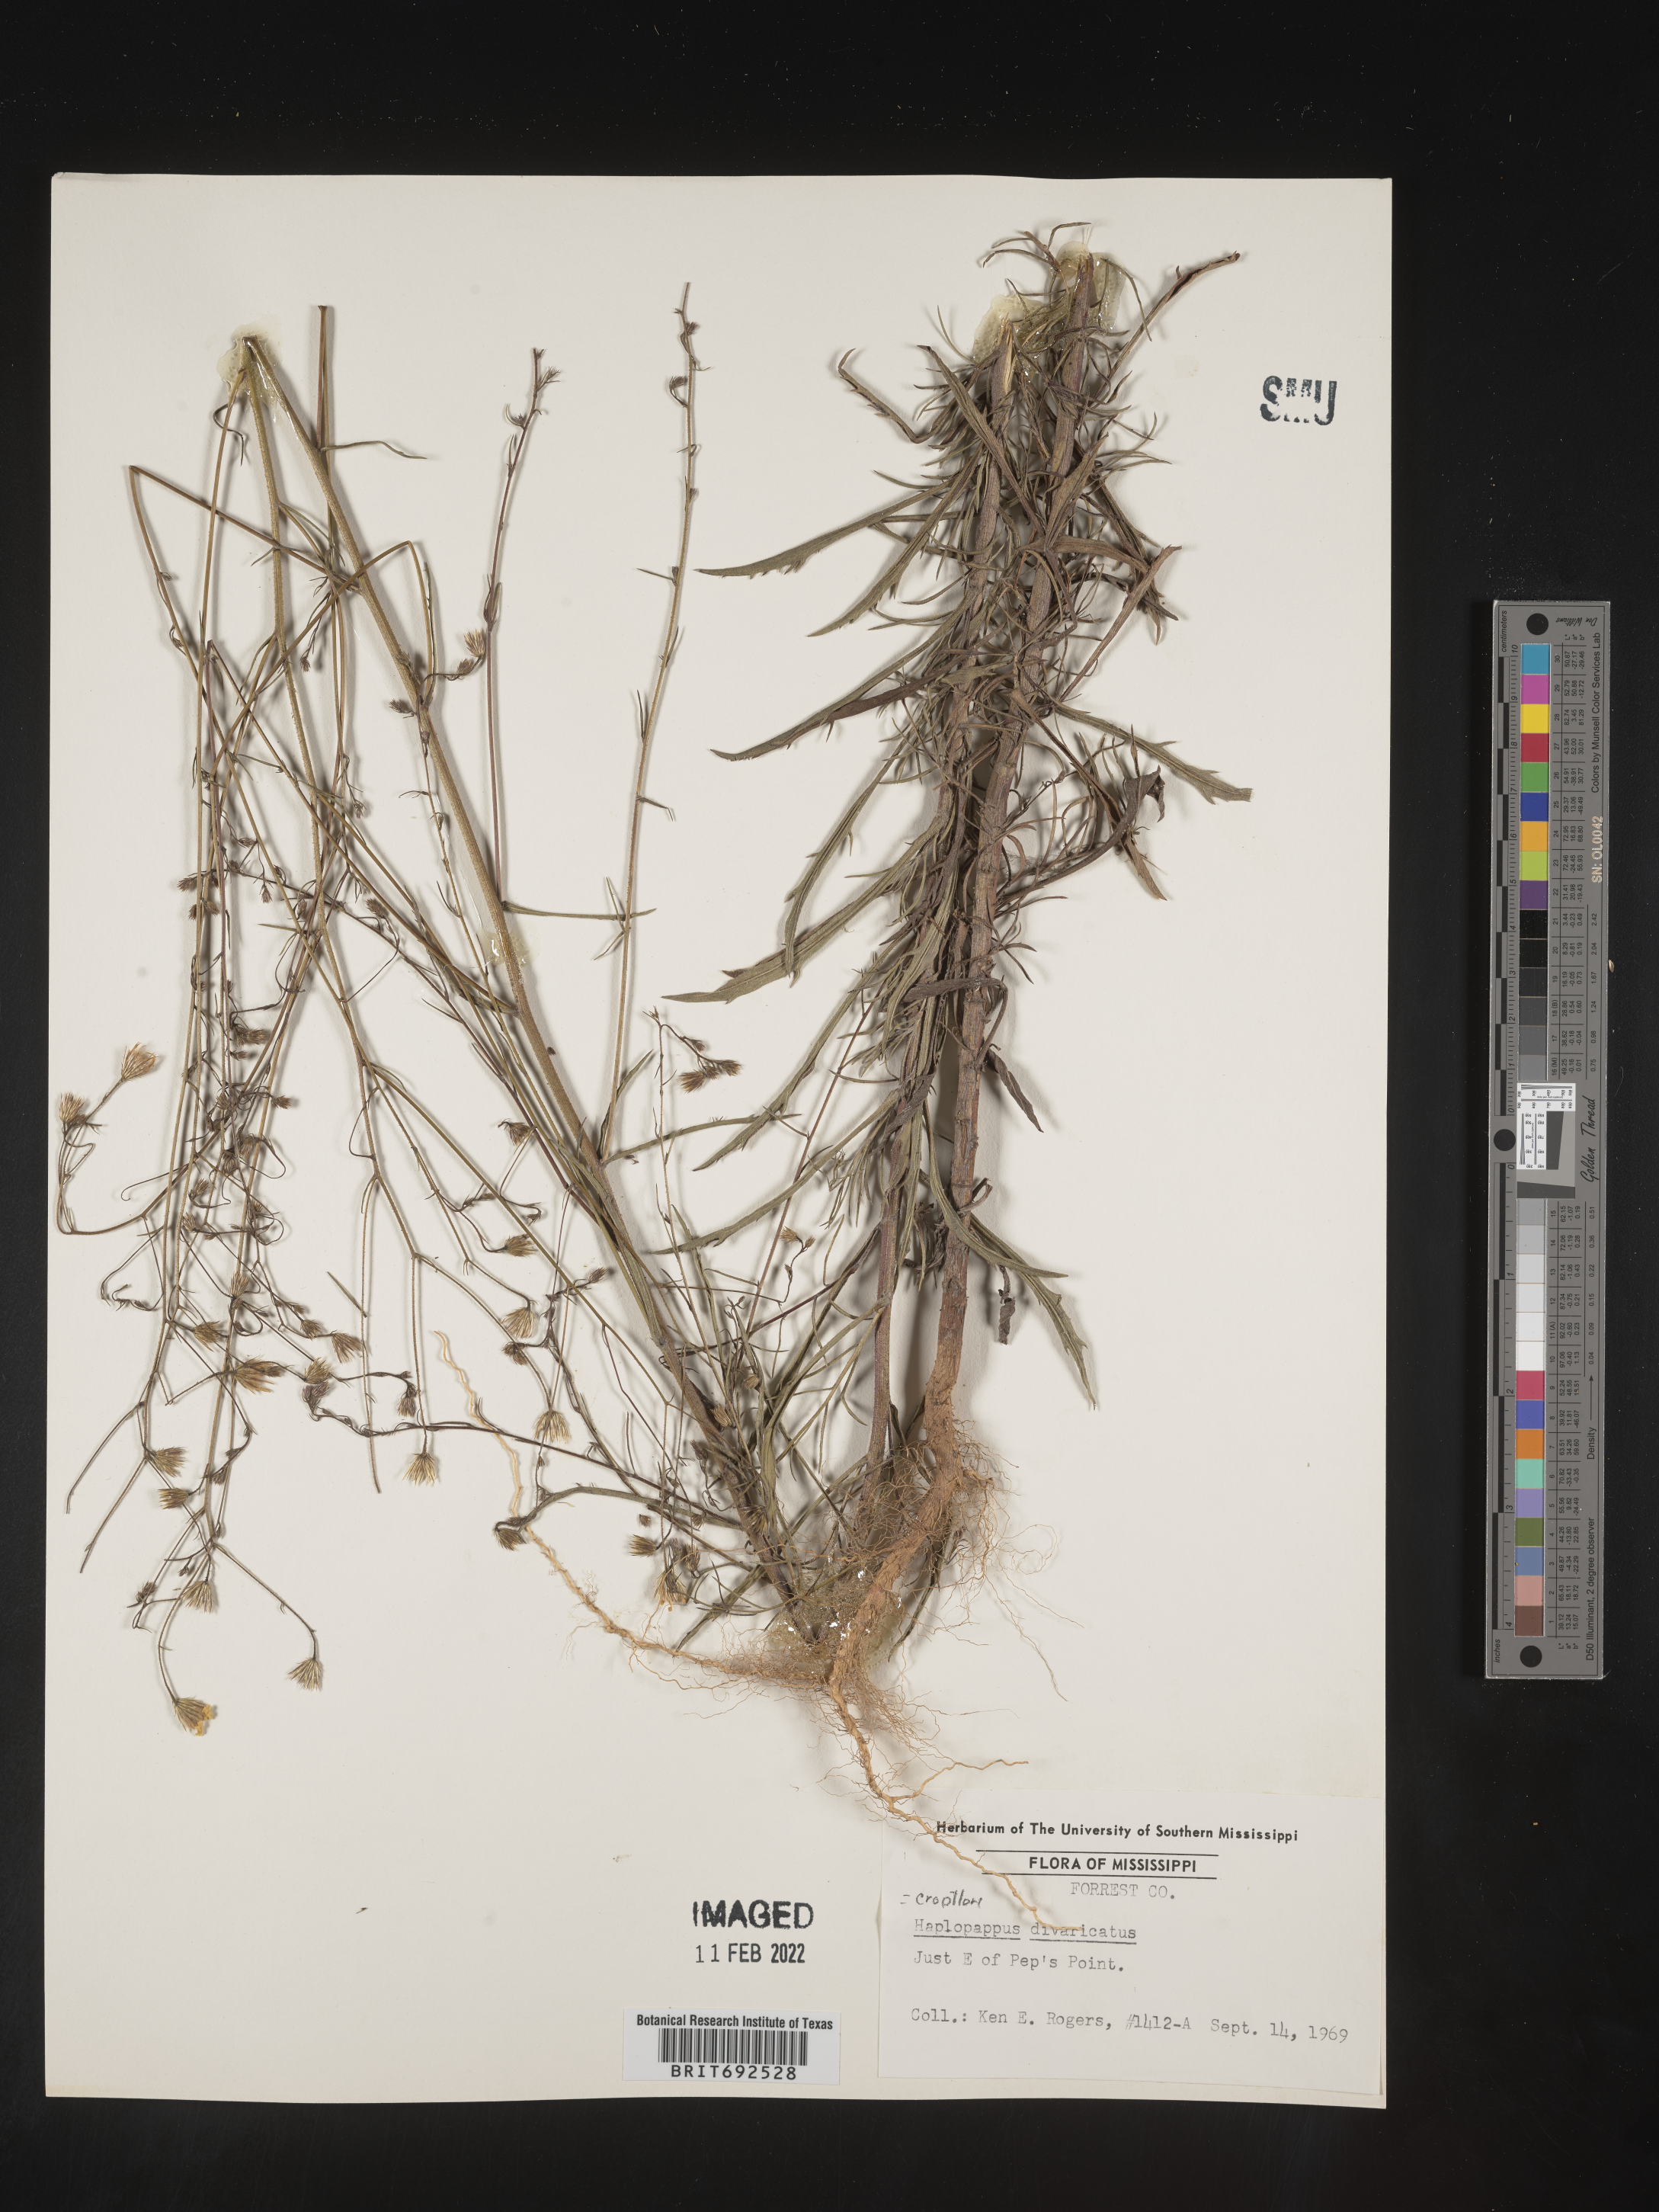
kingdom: Plantae
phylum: Tracheophyta
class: Magnoliopsida
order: Asterales
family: Asteraceae
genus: Croptilon
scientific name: Croptilon divaricatum
